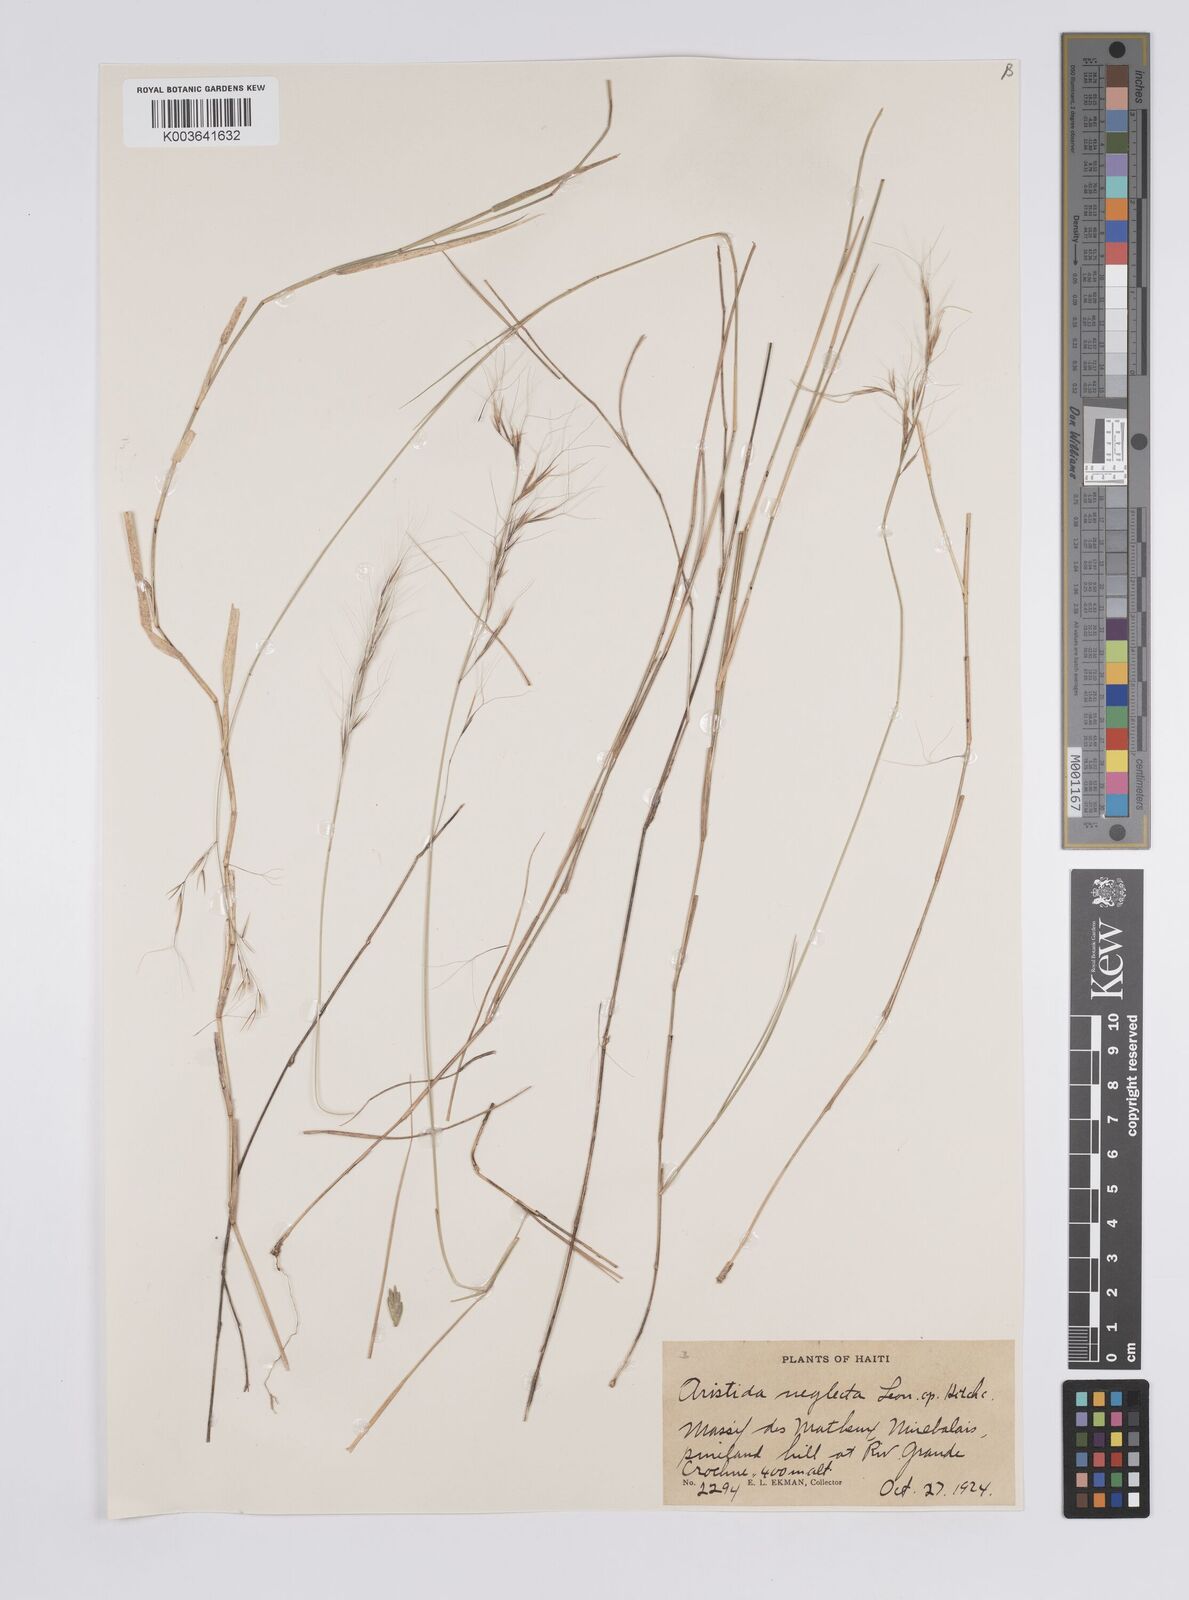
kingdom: Plantae
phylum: Tracheophyta
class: Liliopsida
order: Poales
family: Poaceae
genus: Aristida
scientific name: Aristida neglecta
